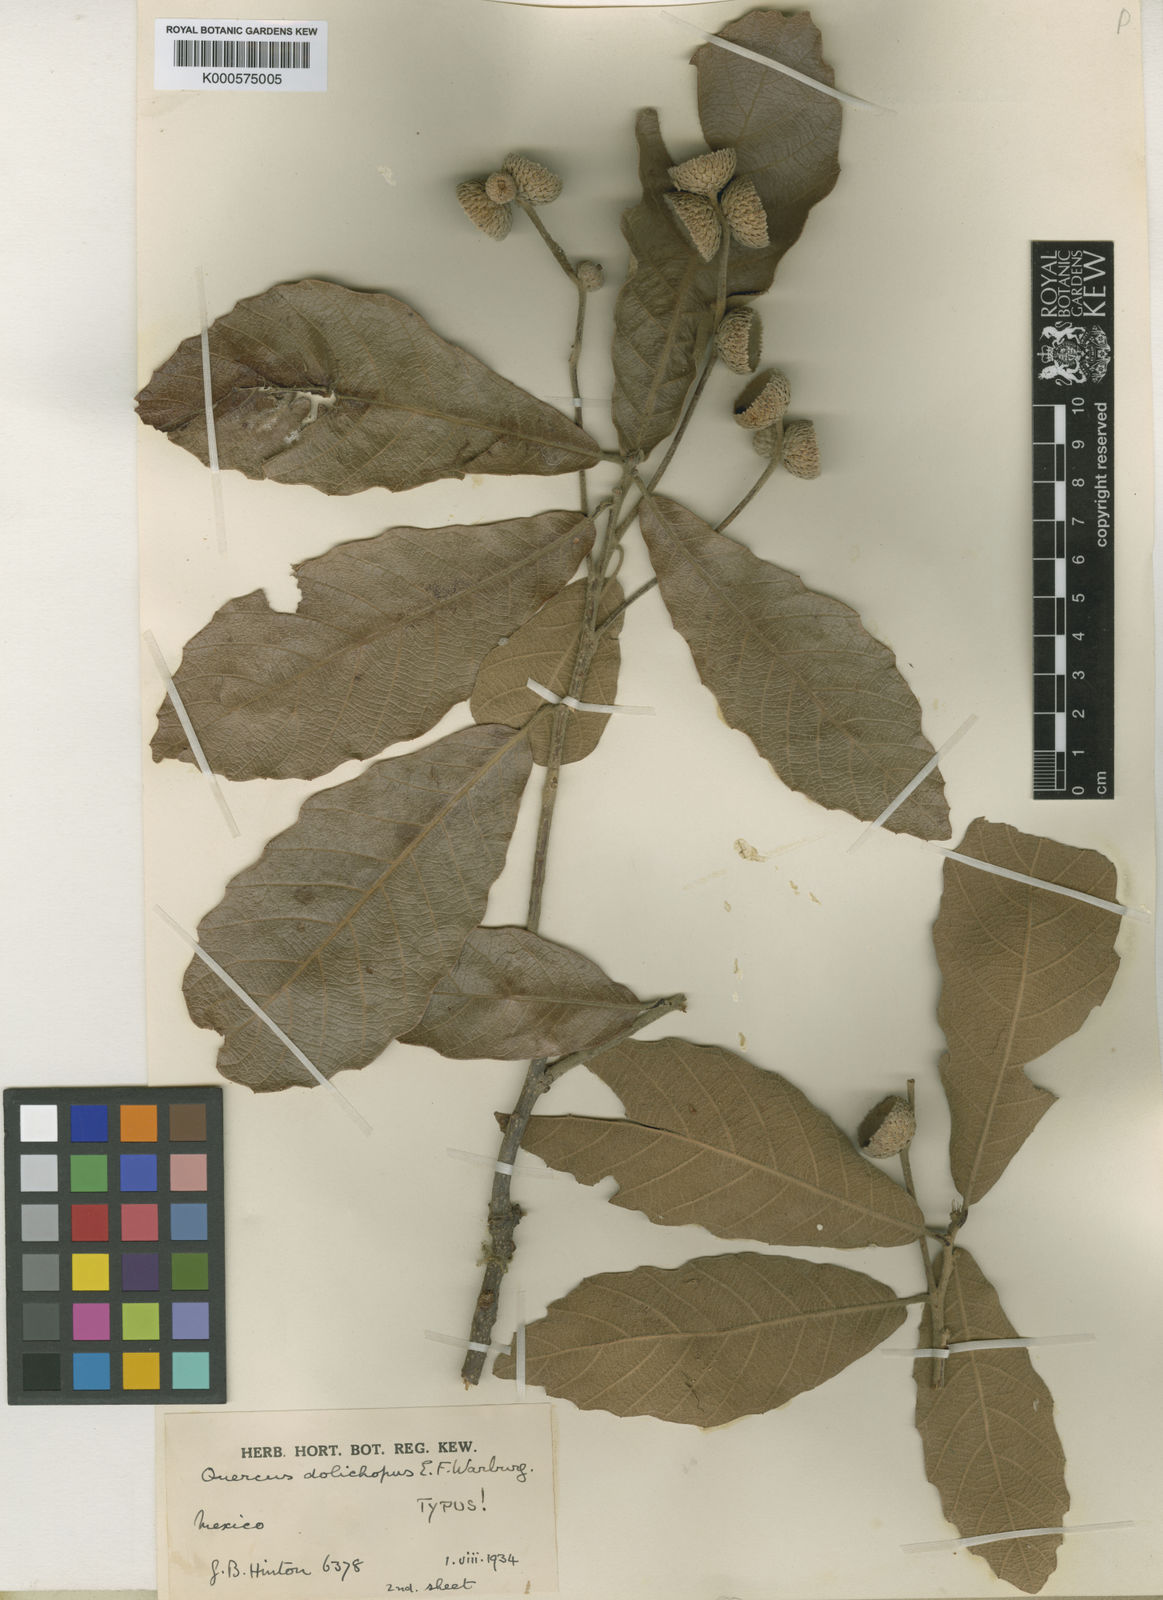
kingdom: Plantae
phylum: Tracheophyta
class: Magnoliopsida
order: Fagales
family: Fagaceae
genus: Quercus
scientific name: Quercus peduncularis
